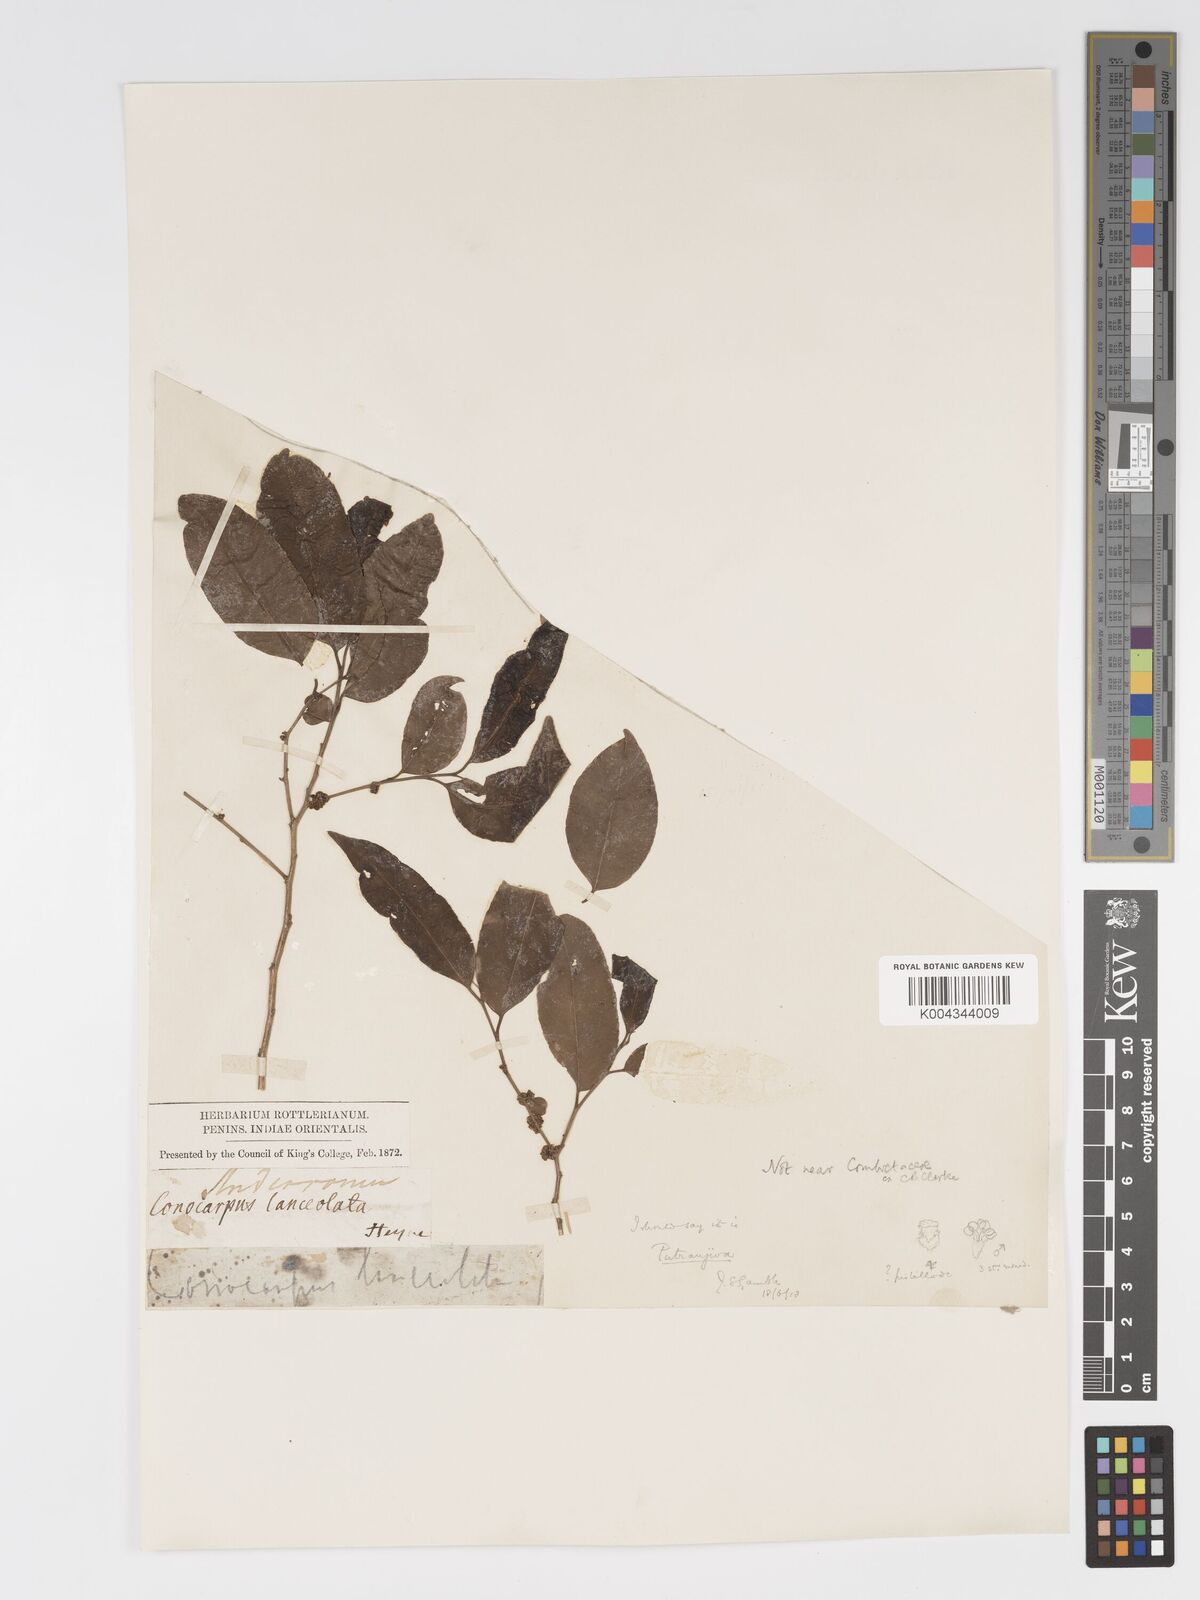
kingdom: Plantae
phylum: Tracheophyta
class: Magnoliopsida
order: Malpighiales
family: Putranjivaceae
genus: Putranjiva
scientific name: Putranjiva roxburghii
